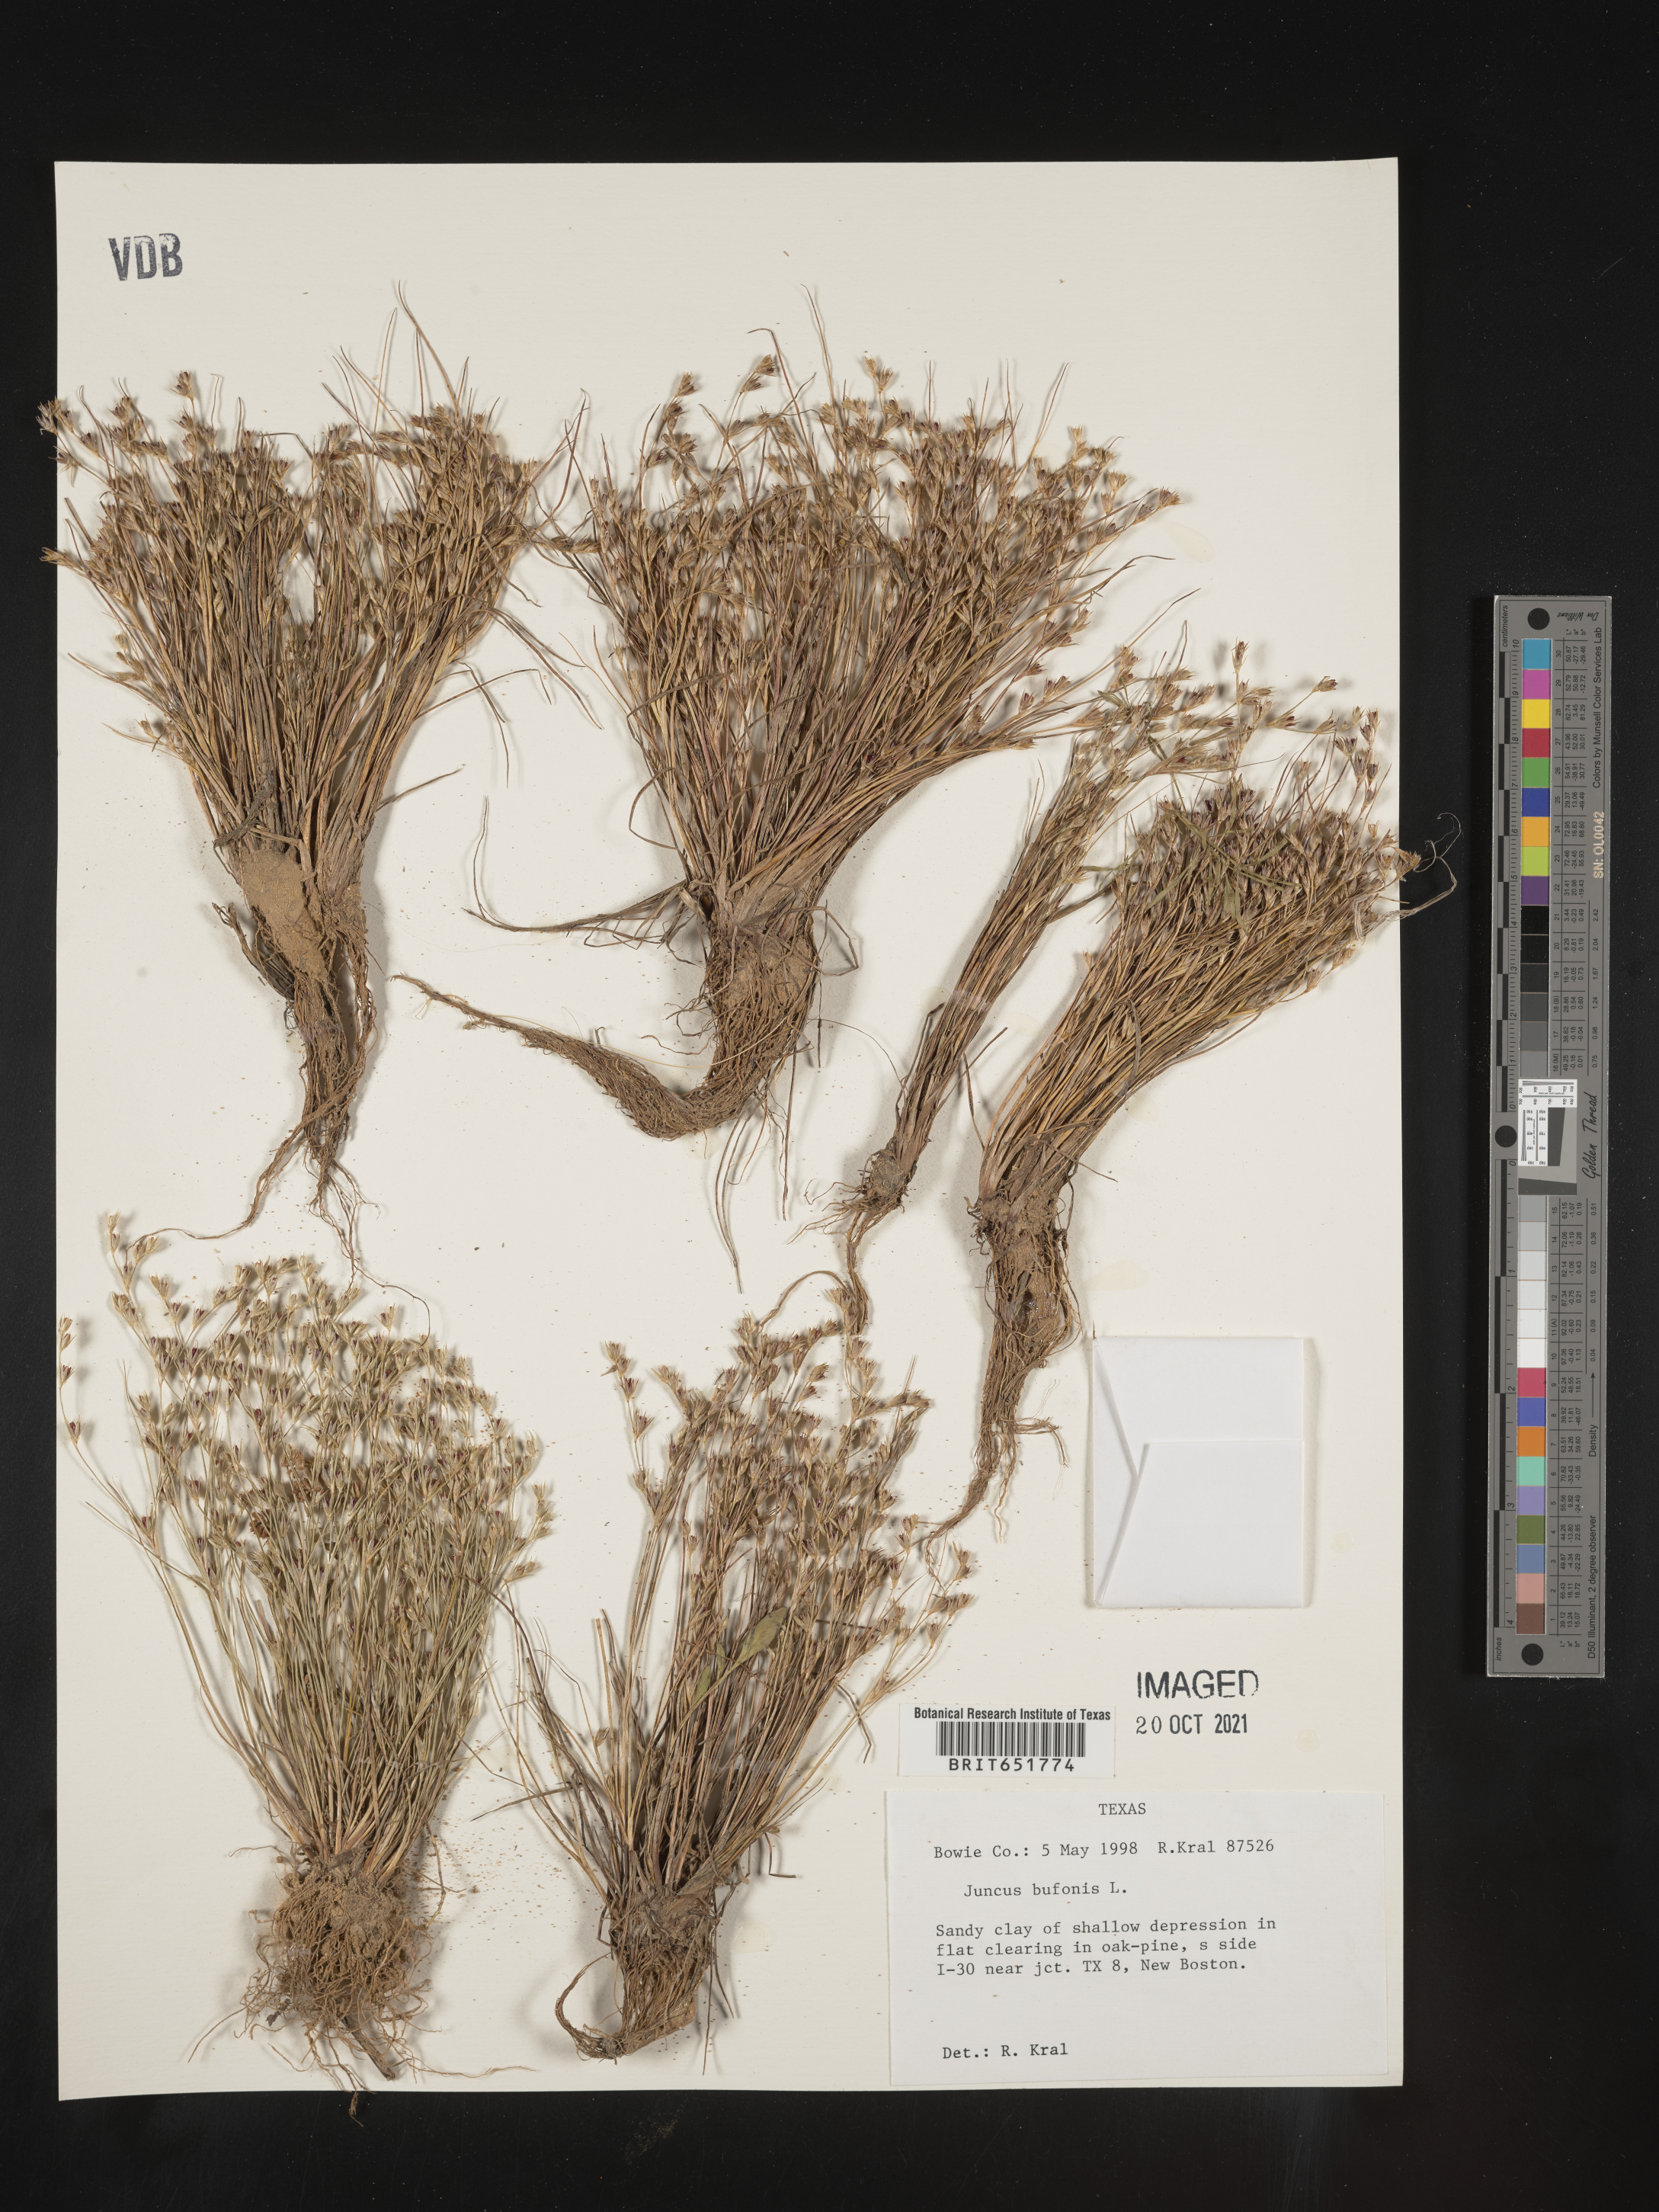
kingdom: Plantae
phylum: Tracheophyta
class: Liliopsida
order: Poales
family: Juncaceae
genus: Juncus
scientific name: Juncus bufonius
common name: Toad rush
